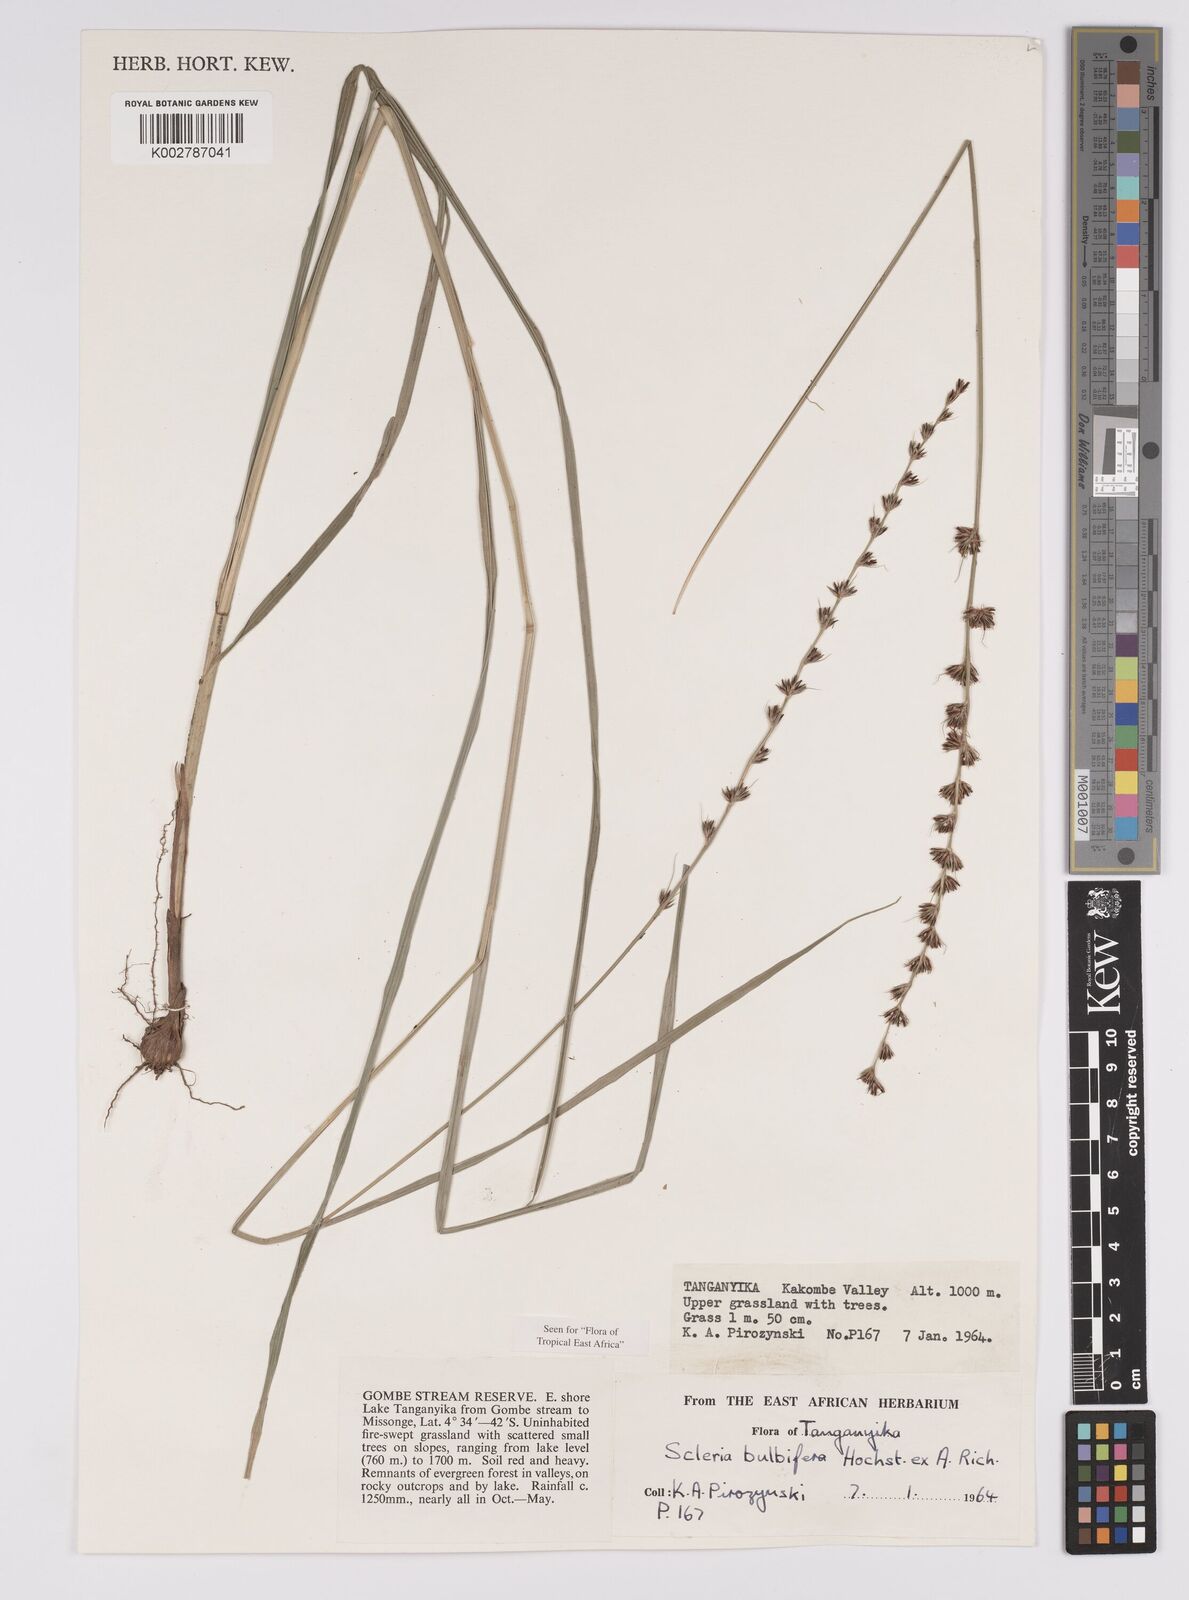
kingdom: Plantae
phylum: Tracheophyta
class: Liliopsida
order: Poales
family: Cyperaceae
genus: Scleria
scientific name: Scleria bulbifera
